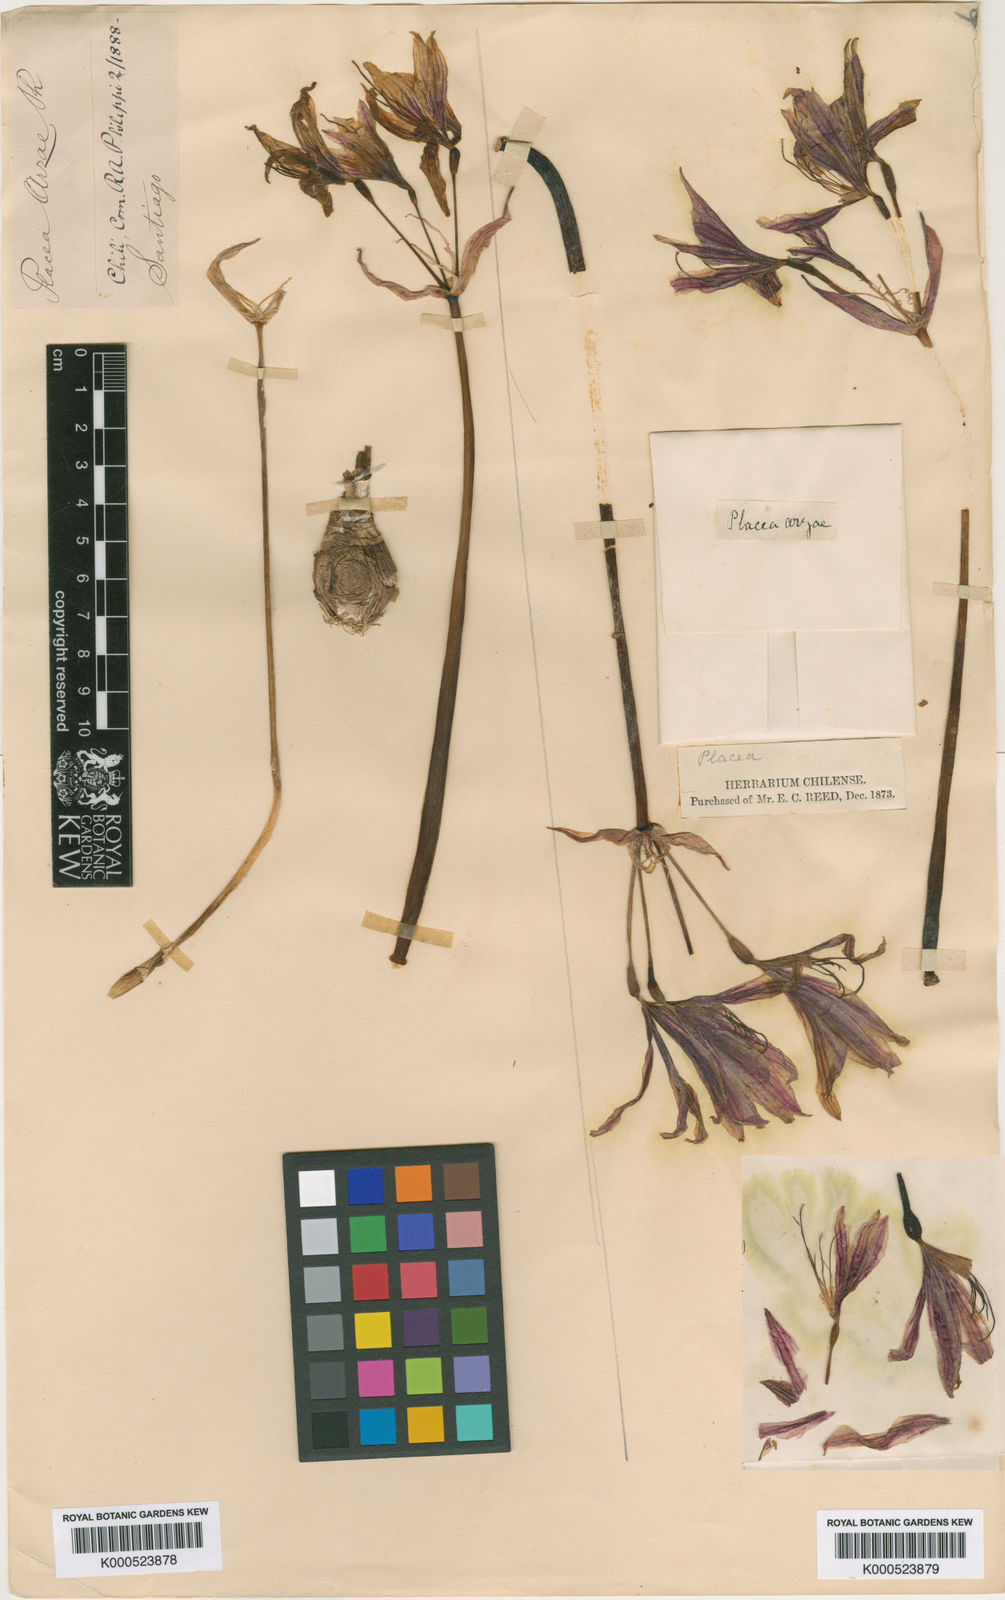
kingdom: Plantae
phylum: Tracheophyta
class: Liliopsida
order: Asparagales
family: Amaryllidaceae
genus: Phycella
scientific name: Phycella arzae
